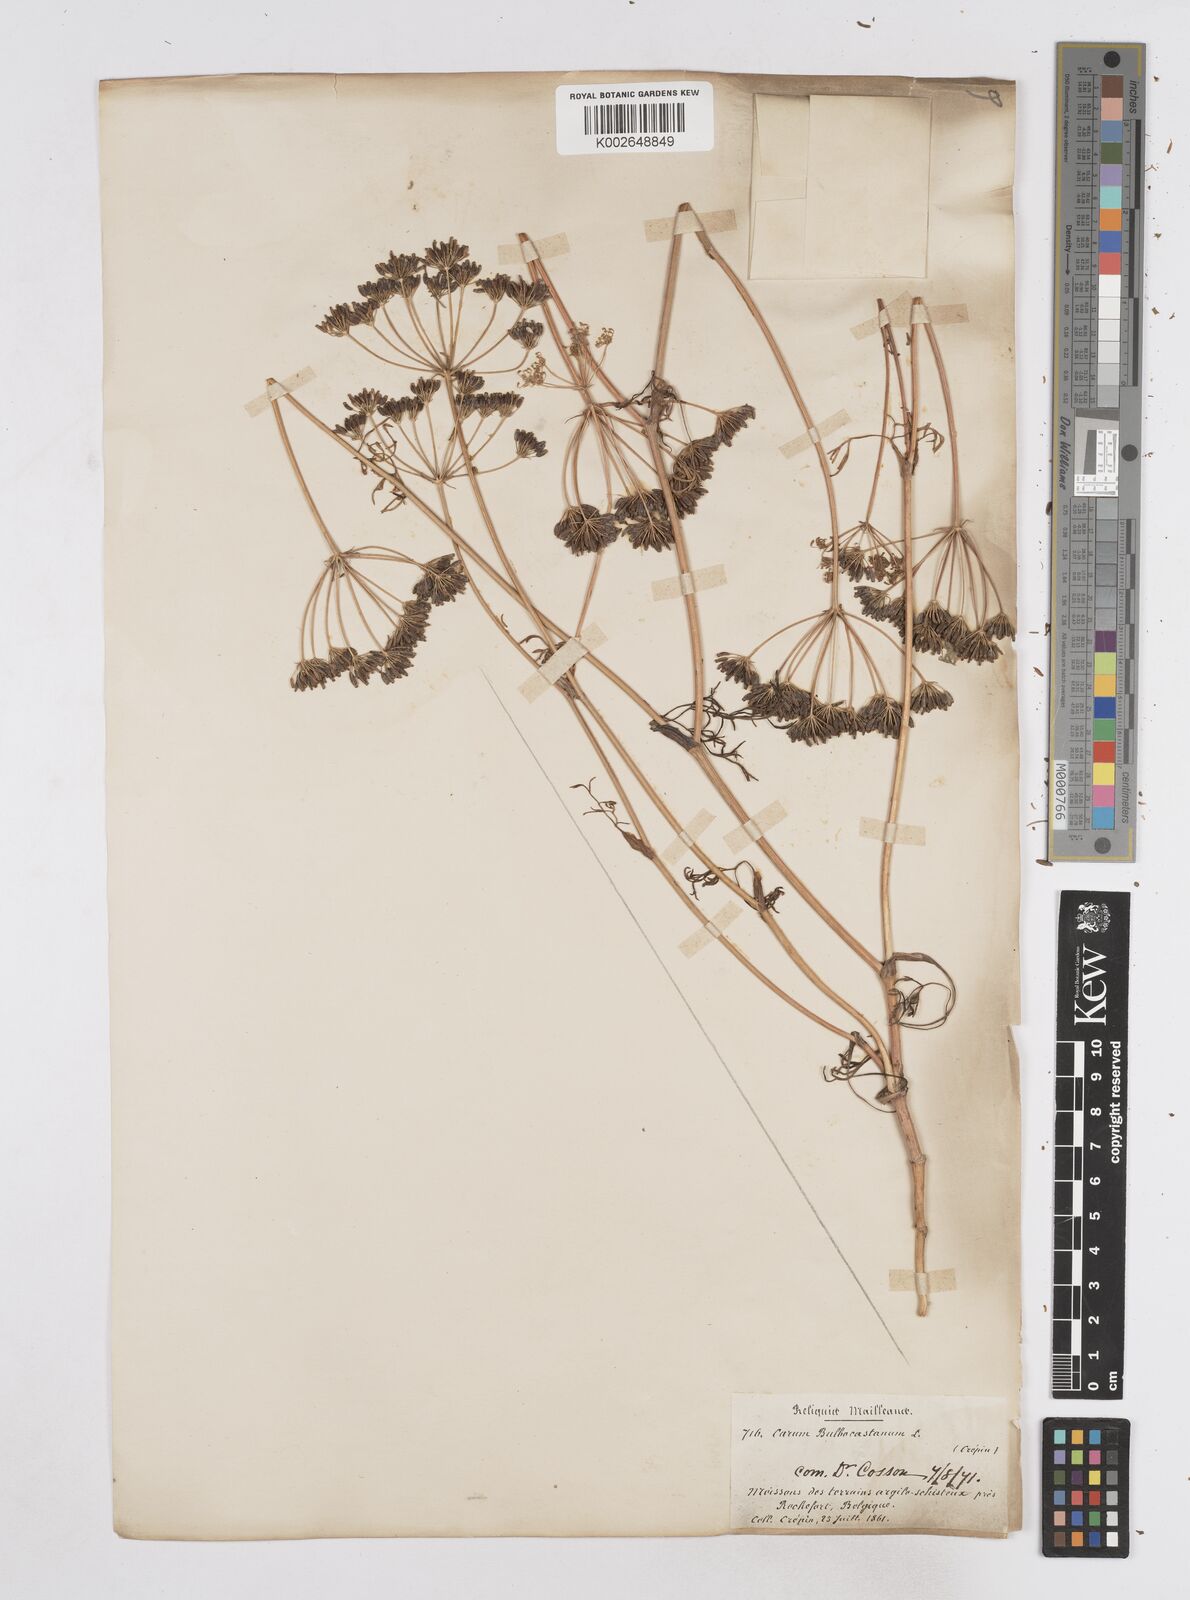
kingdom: Plantae
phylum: Tracheophyta
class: Magnoliopsida
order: Apiales
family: Apiaceae
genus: Bunium
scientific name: Bunium bulbocastanum
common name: Great pignut
